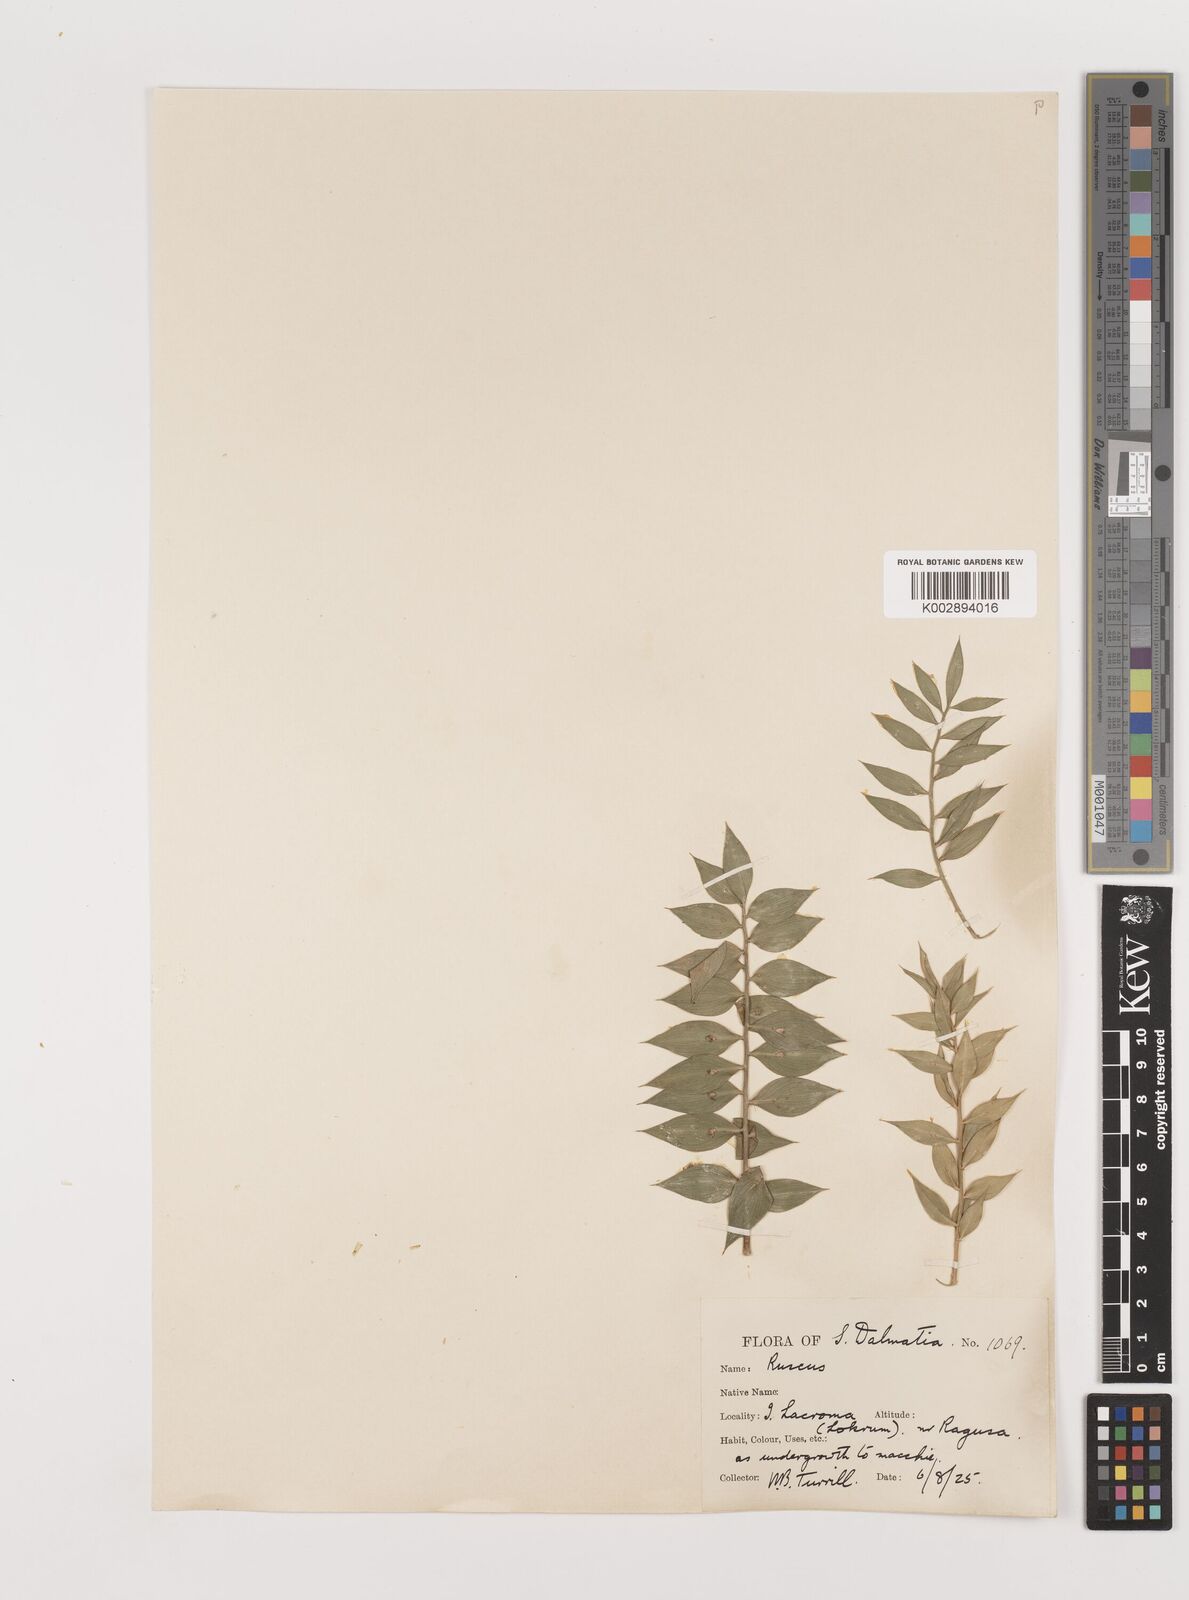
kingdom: Plantae
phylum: Tracheophyta
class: Liliopsida
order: Asparagales
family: Asparagaceae
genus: Ruscus
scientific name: Ruscus aculeatus
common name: Butcher's-broom
